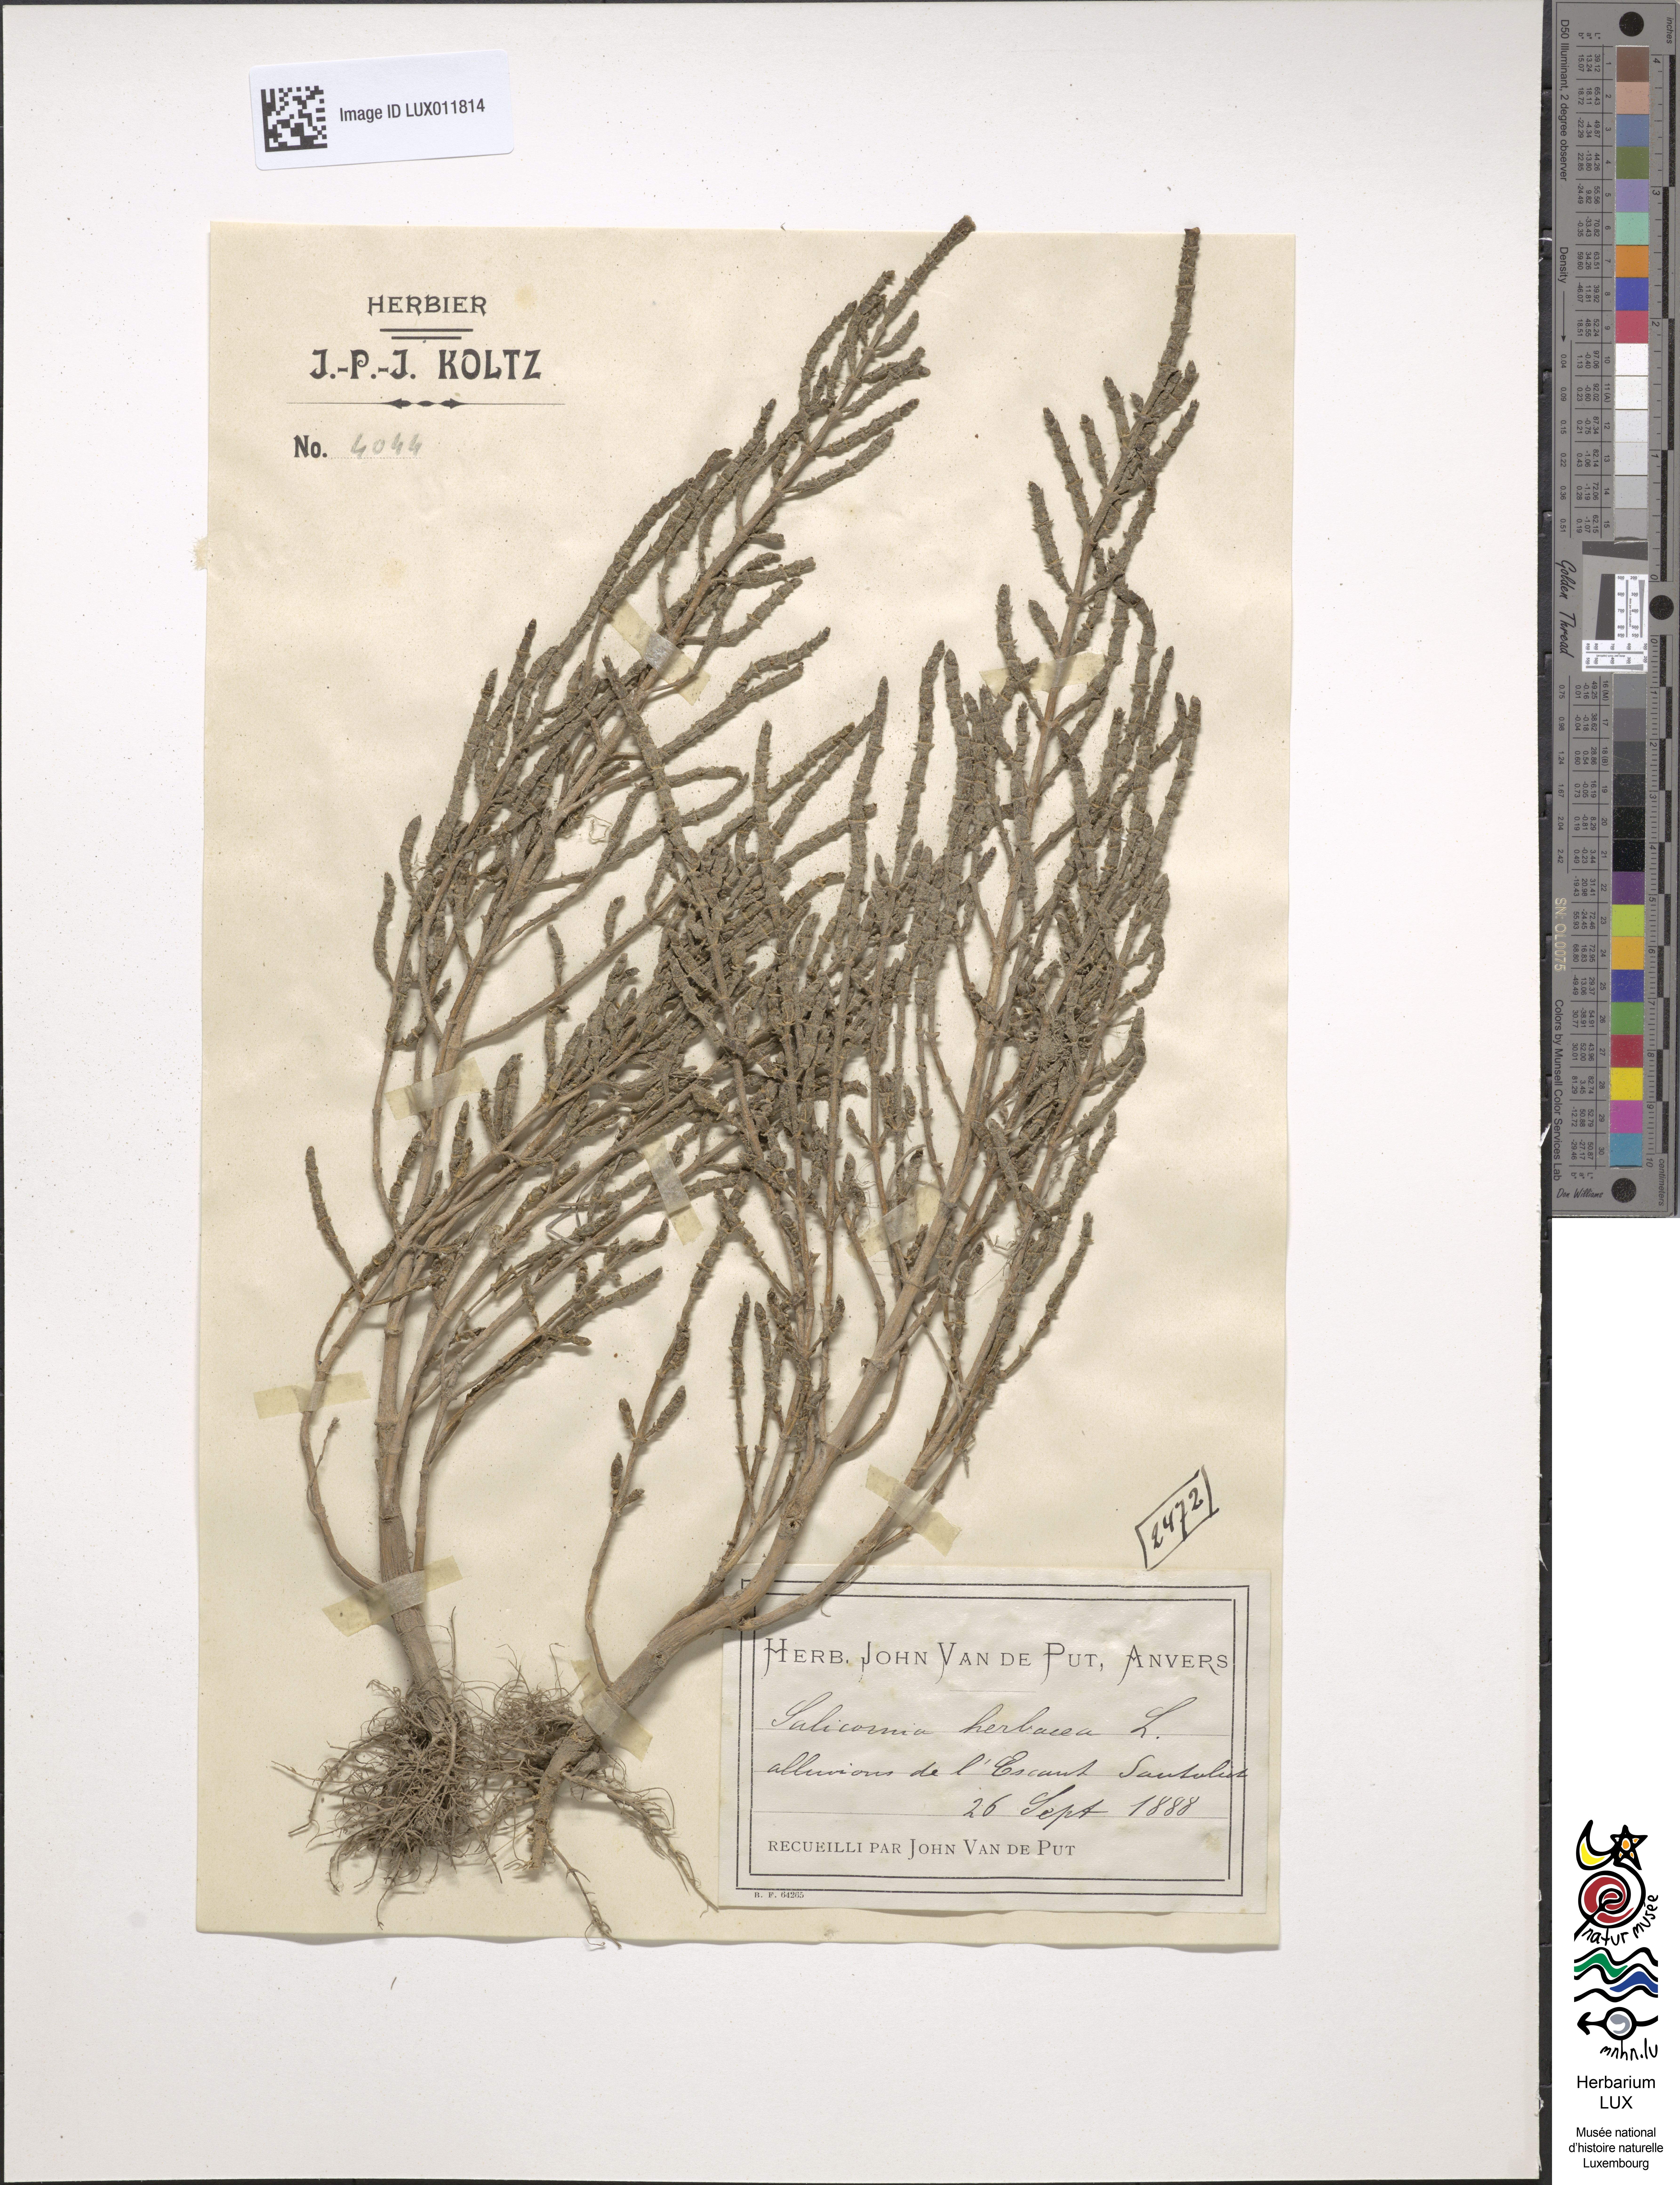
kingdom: Plantae
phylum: Tracheophyta
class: Magnoliopsida
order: Caryophyllales
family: Amaranthaceae
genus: Salicornia
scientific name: Salicornia europaea
